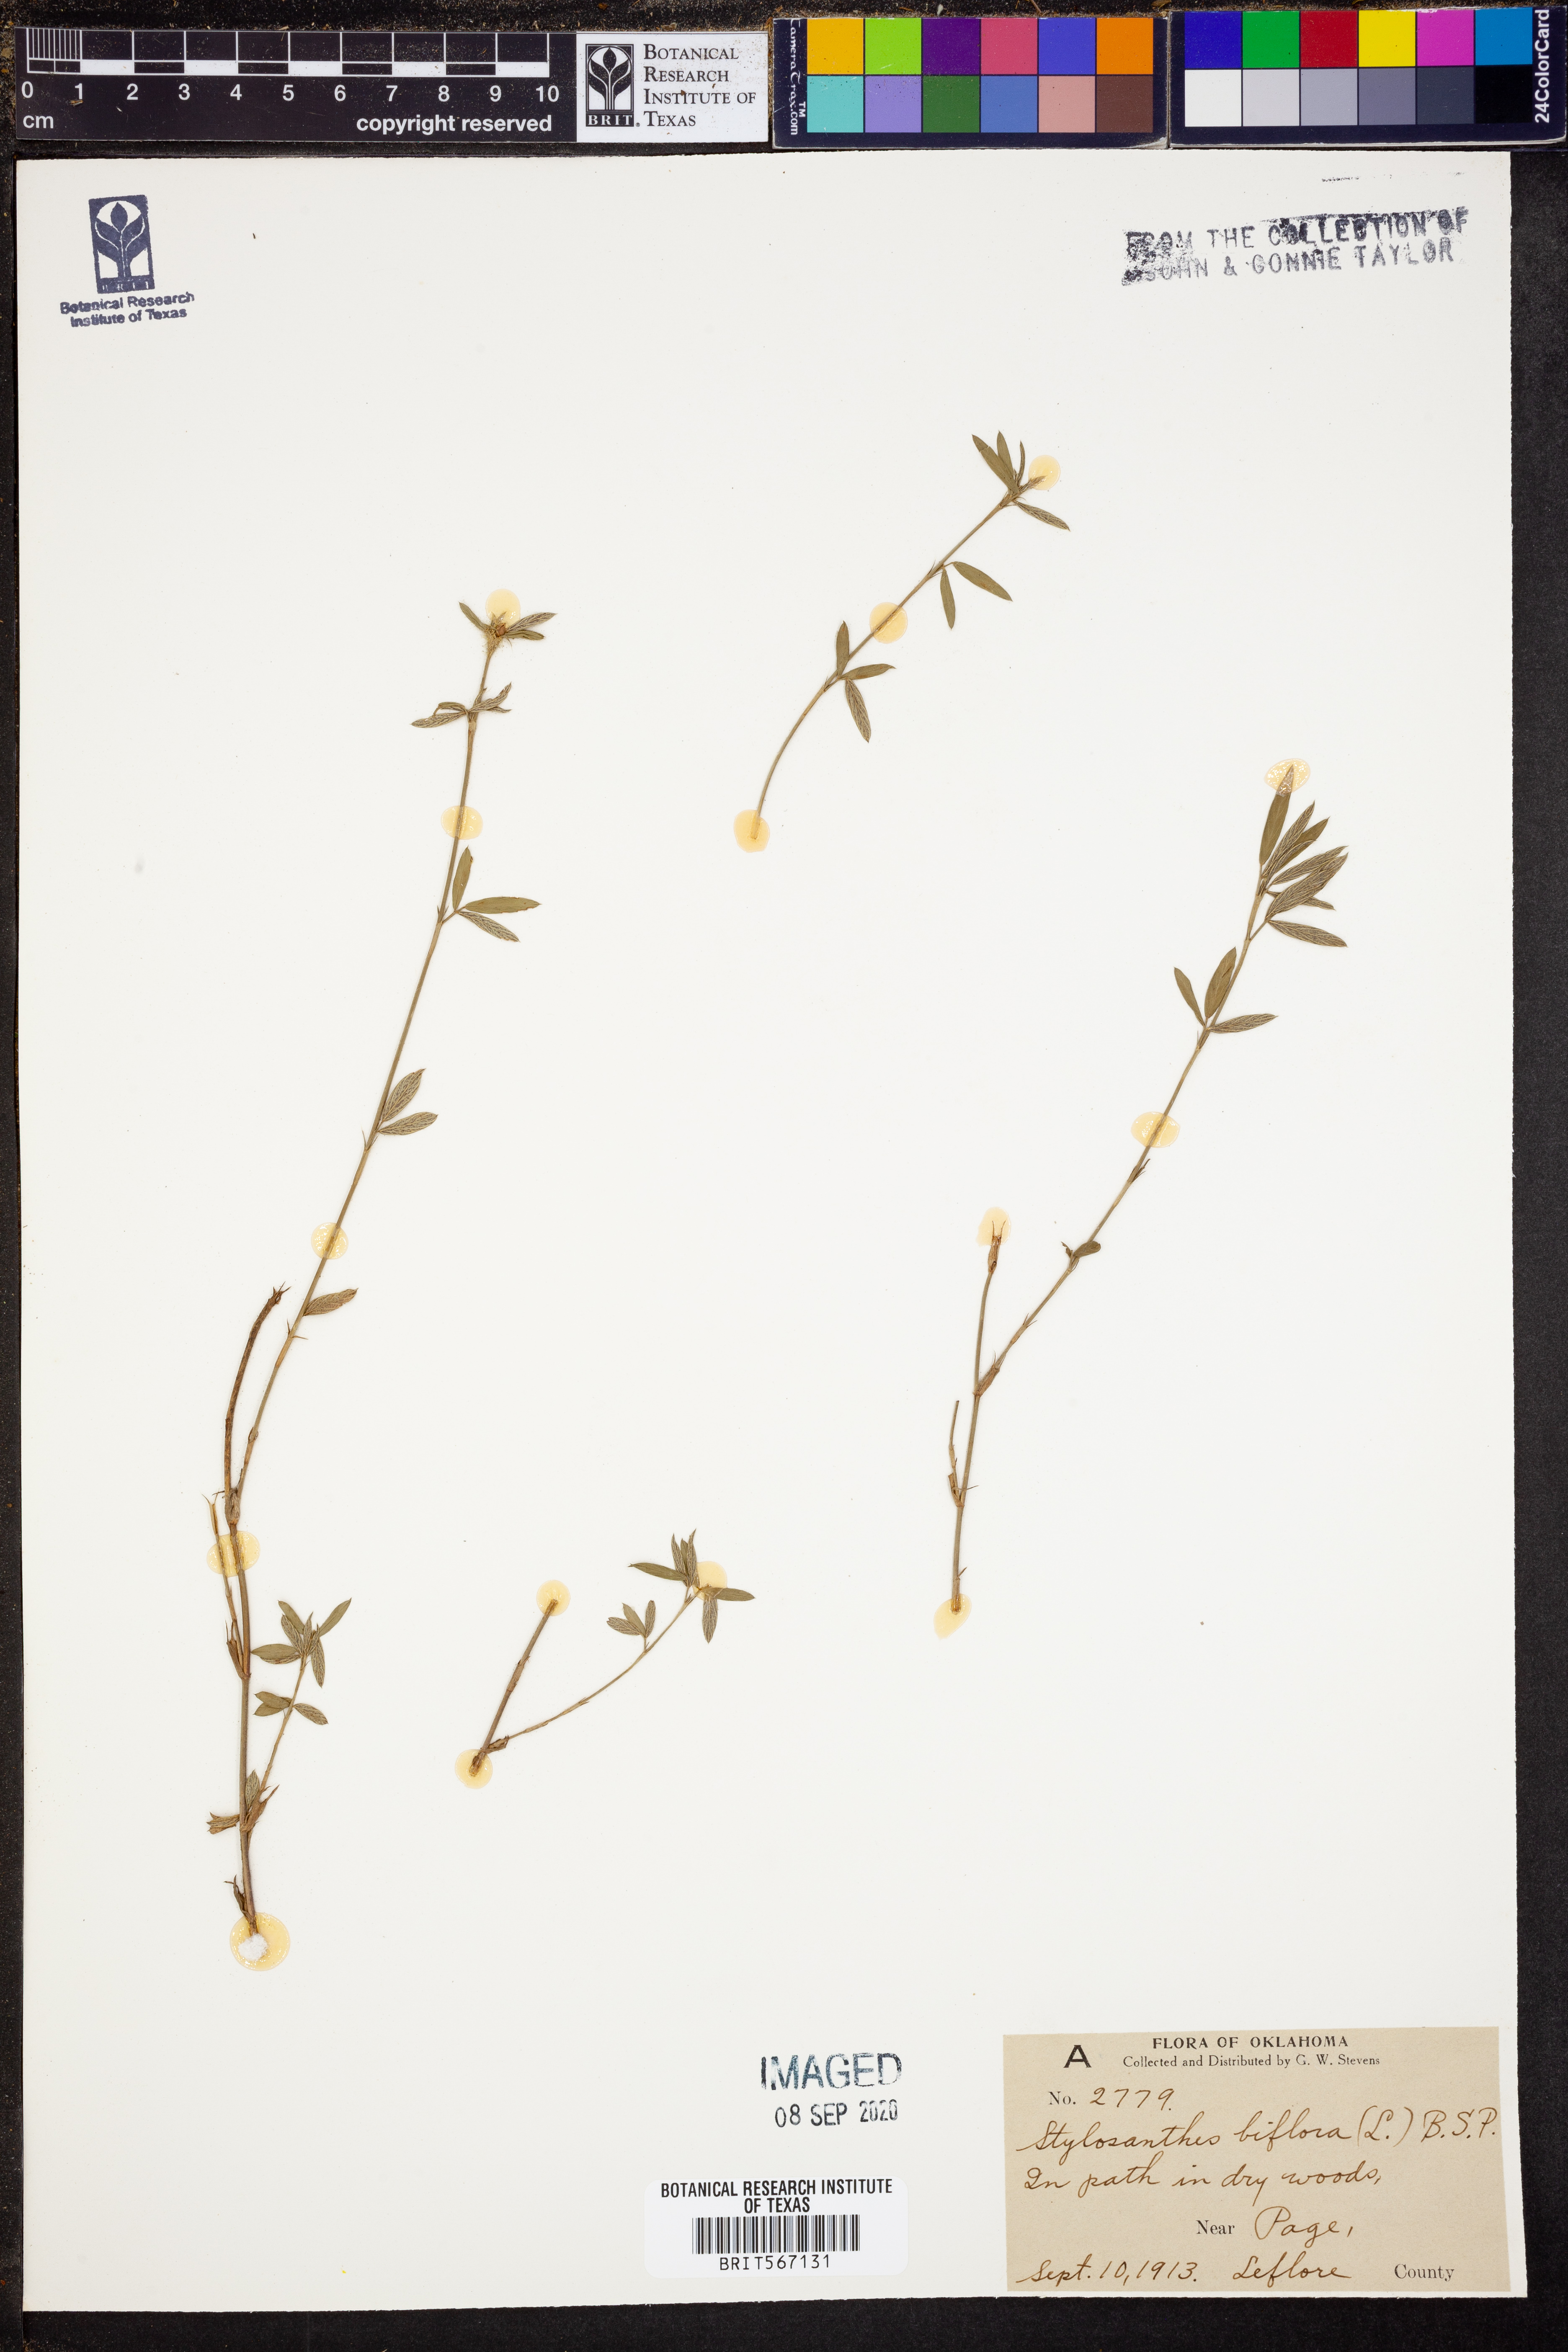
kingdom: Plantae
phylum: Tracheophyta
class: Magnoliopsida
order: Fabales
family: Fabaceae
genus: Stylosanthes
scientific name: Stylosanthes biflora
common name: Two-flower pencil-flower
